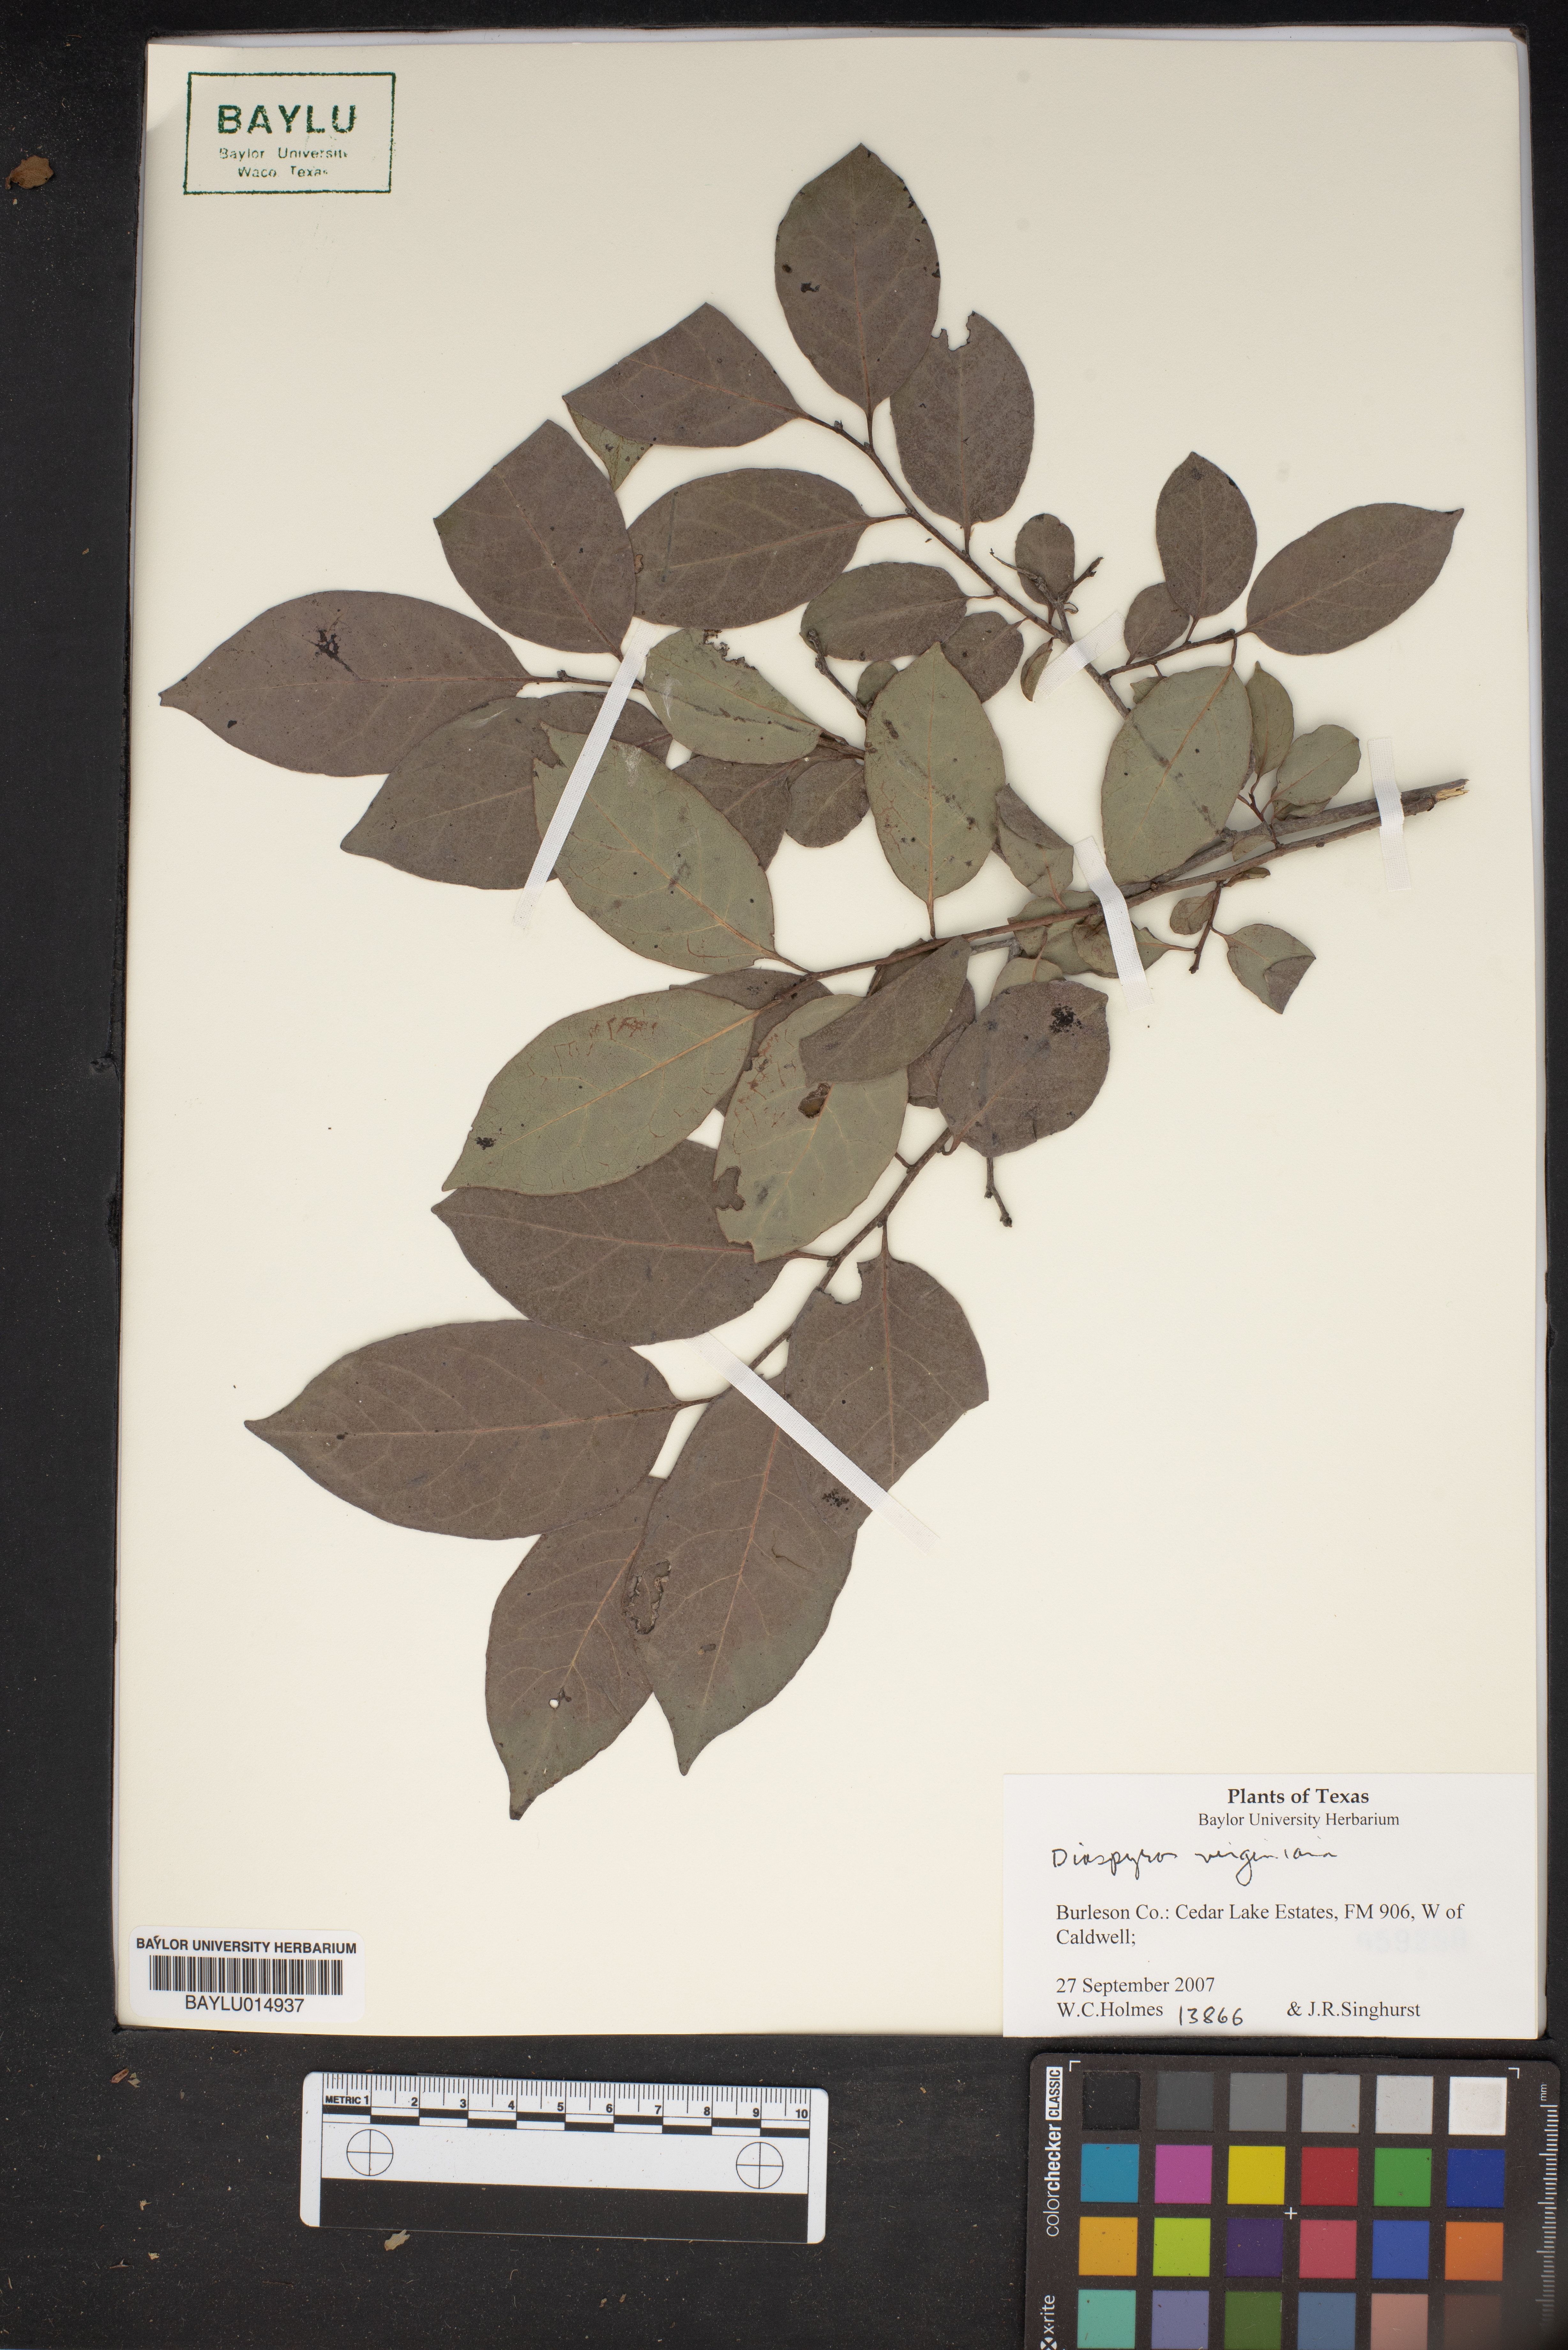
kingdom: Plantae
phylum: Tracheophyta
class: Magnoliopsida
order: Ericales
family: Ebenaceae
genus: Diospyros
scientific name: Diospyros virginiana
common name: Persimmon
